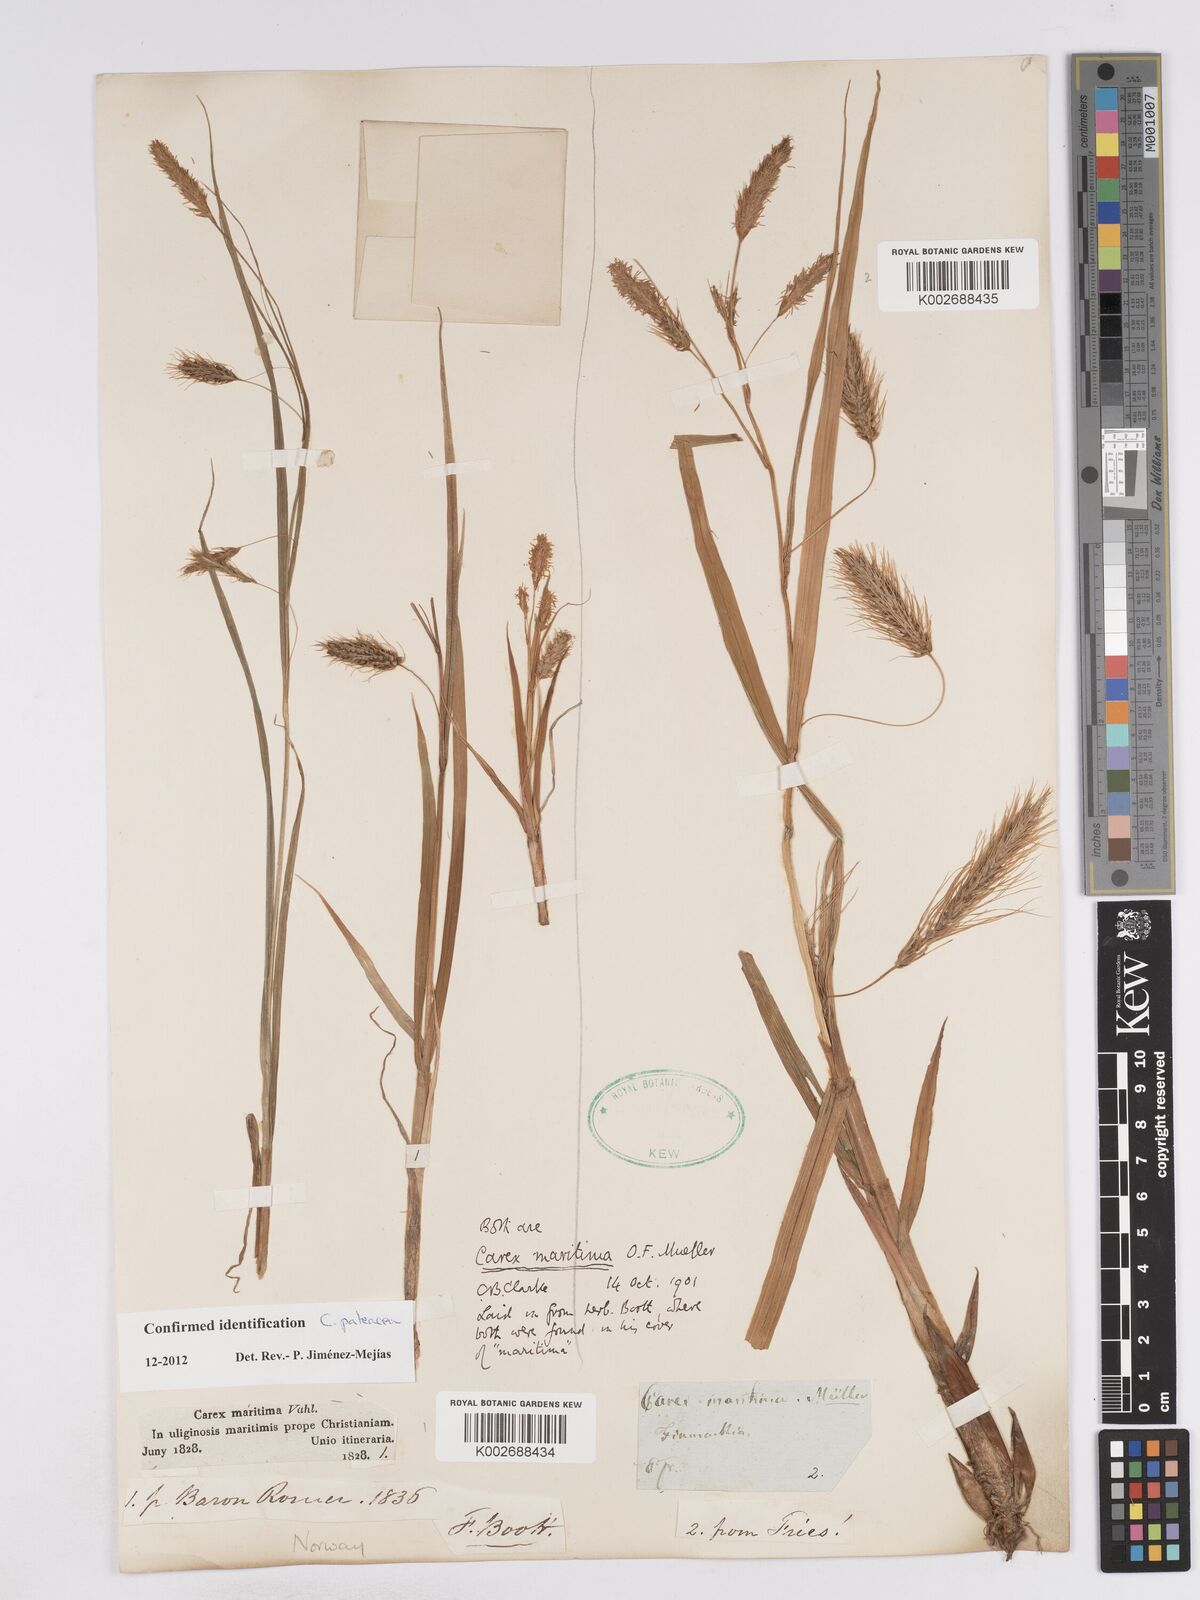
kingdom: Plantae
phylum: Tracheophyta
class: Liliopsida
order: Poales
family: Cyperaceae
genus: Carex
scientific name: Carex paleacea
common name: Chaffy sedge
